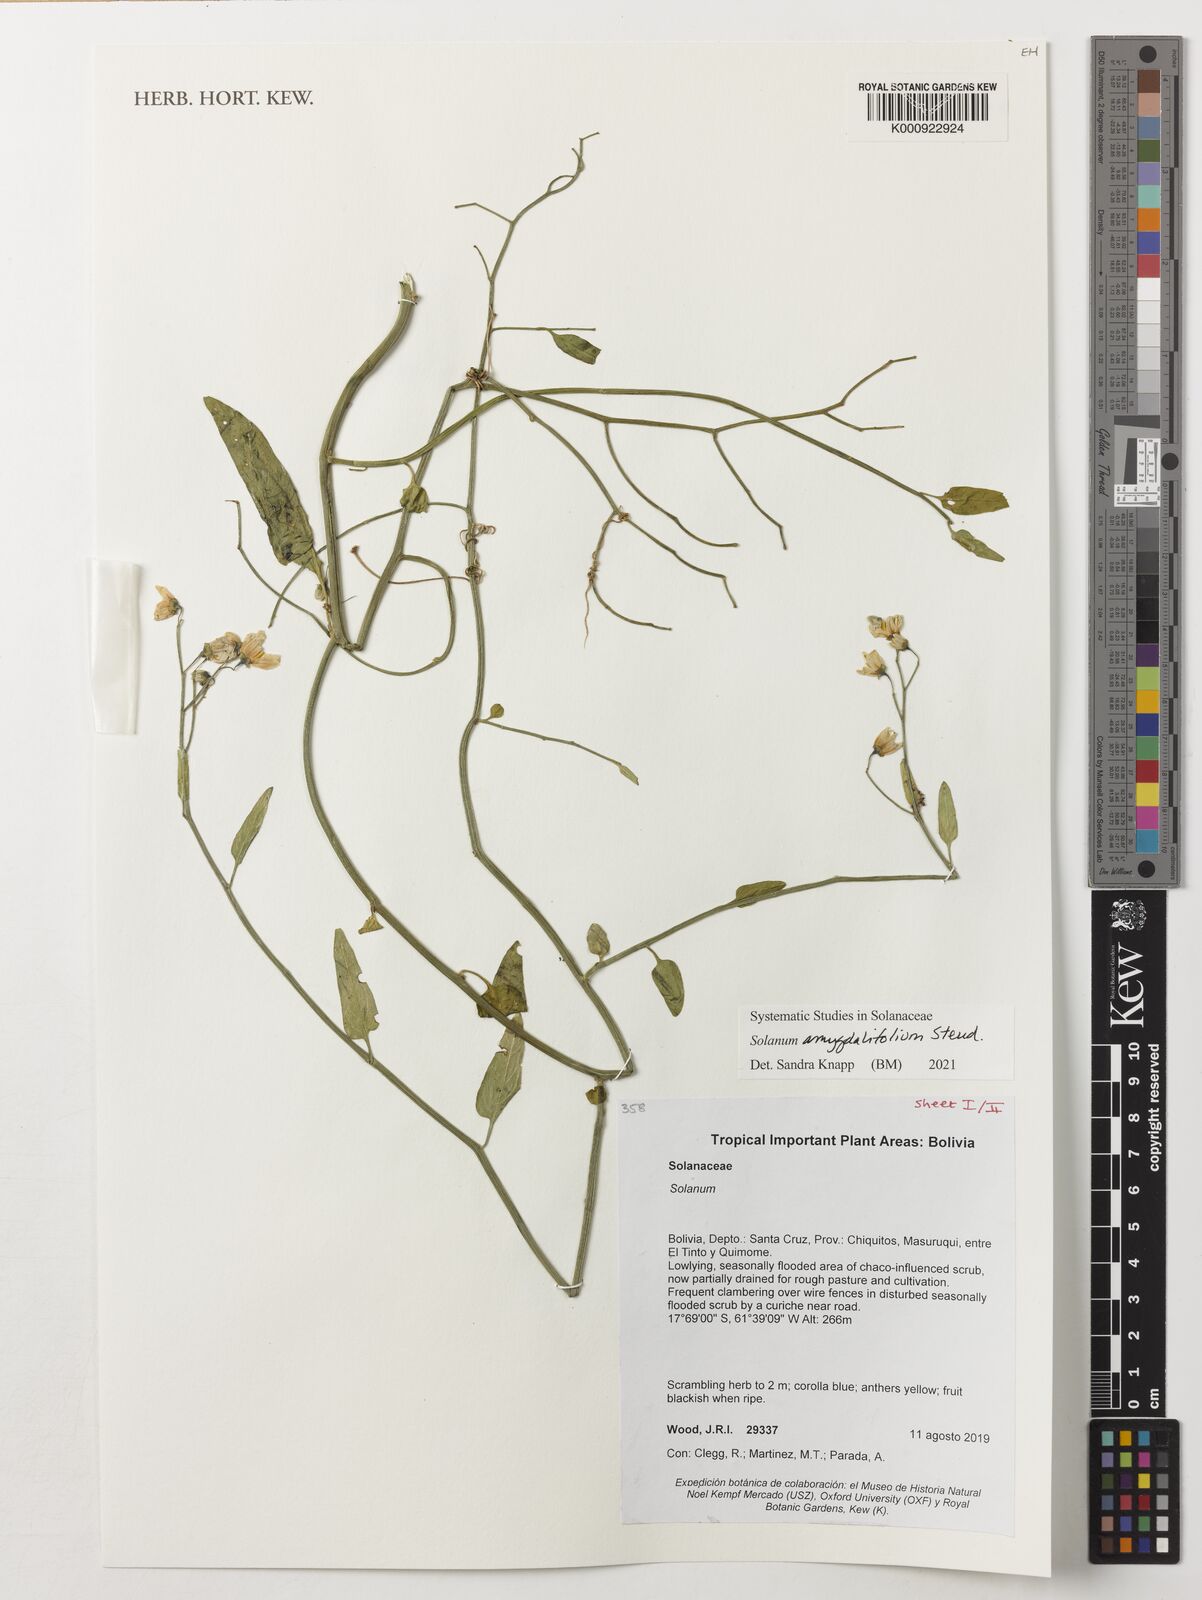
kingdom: Plantae
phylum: Tracheophyta
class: Magnoliopsida
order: Solanales
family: Solanaceae
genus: Solanum
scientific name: Solanum amygdalifolium
